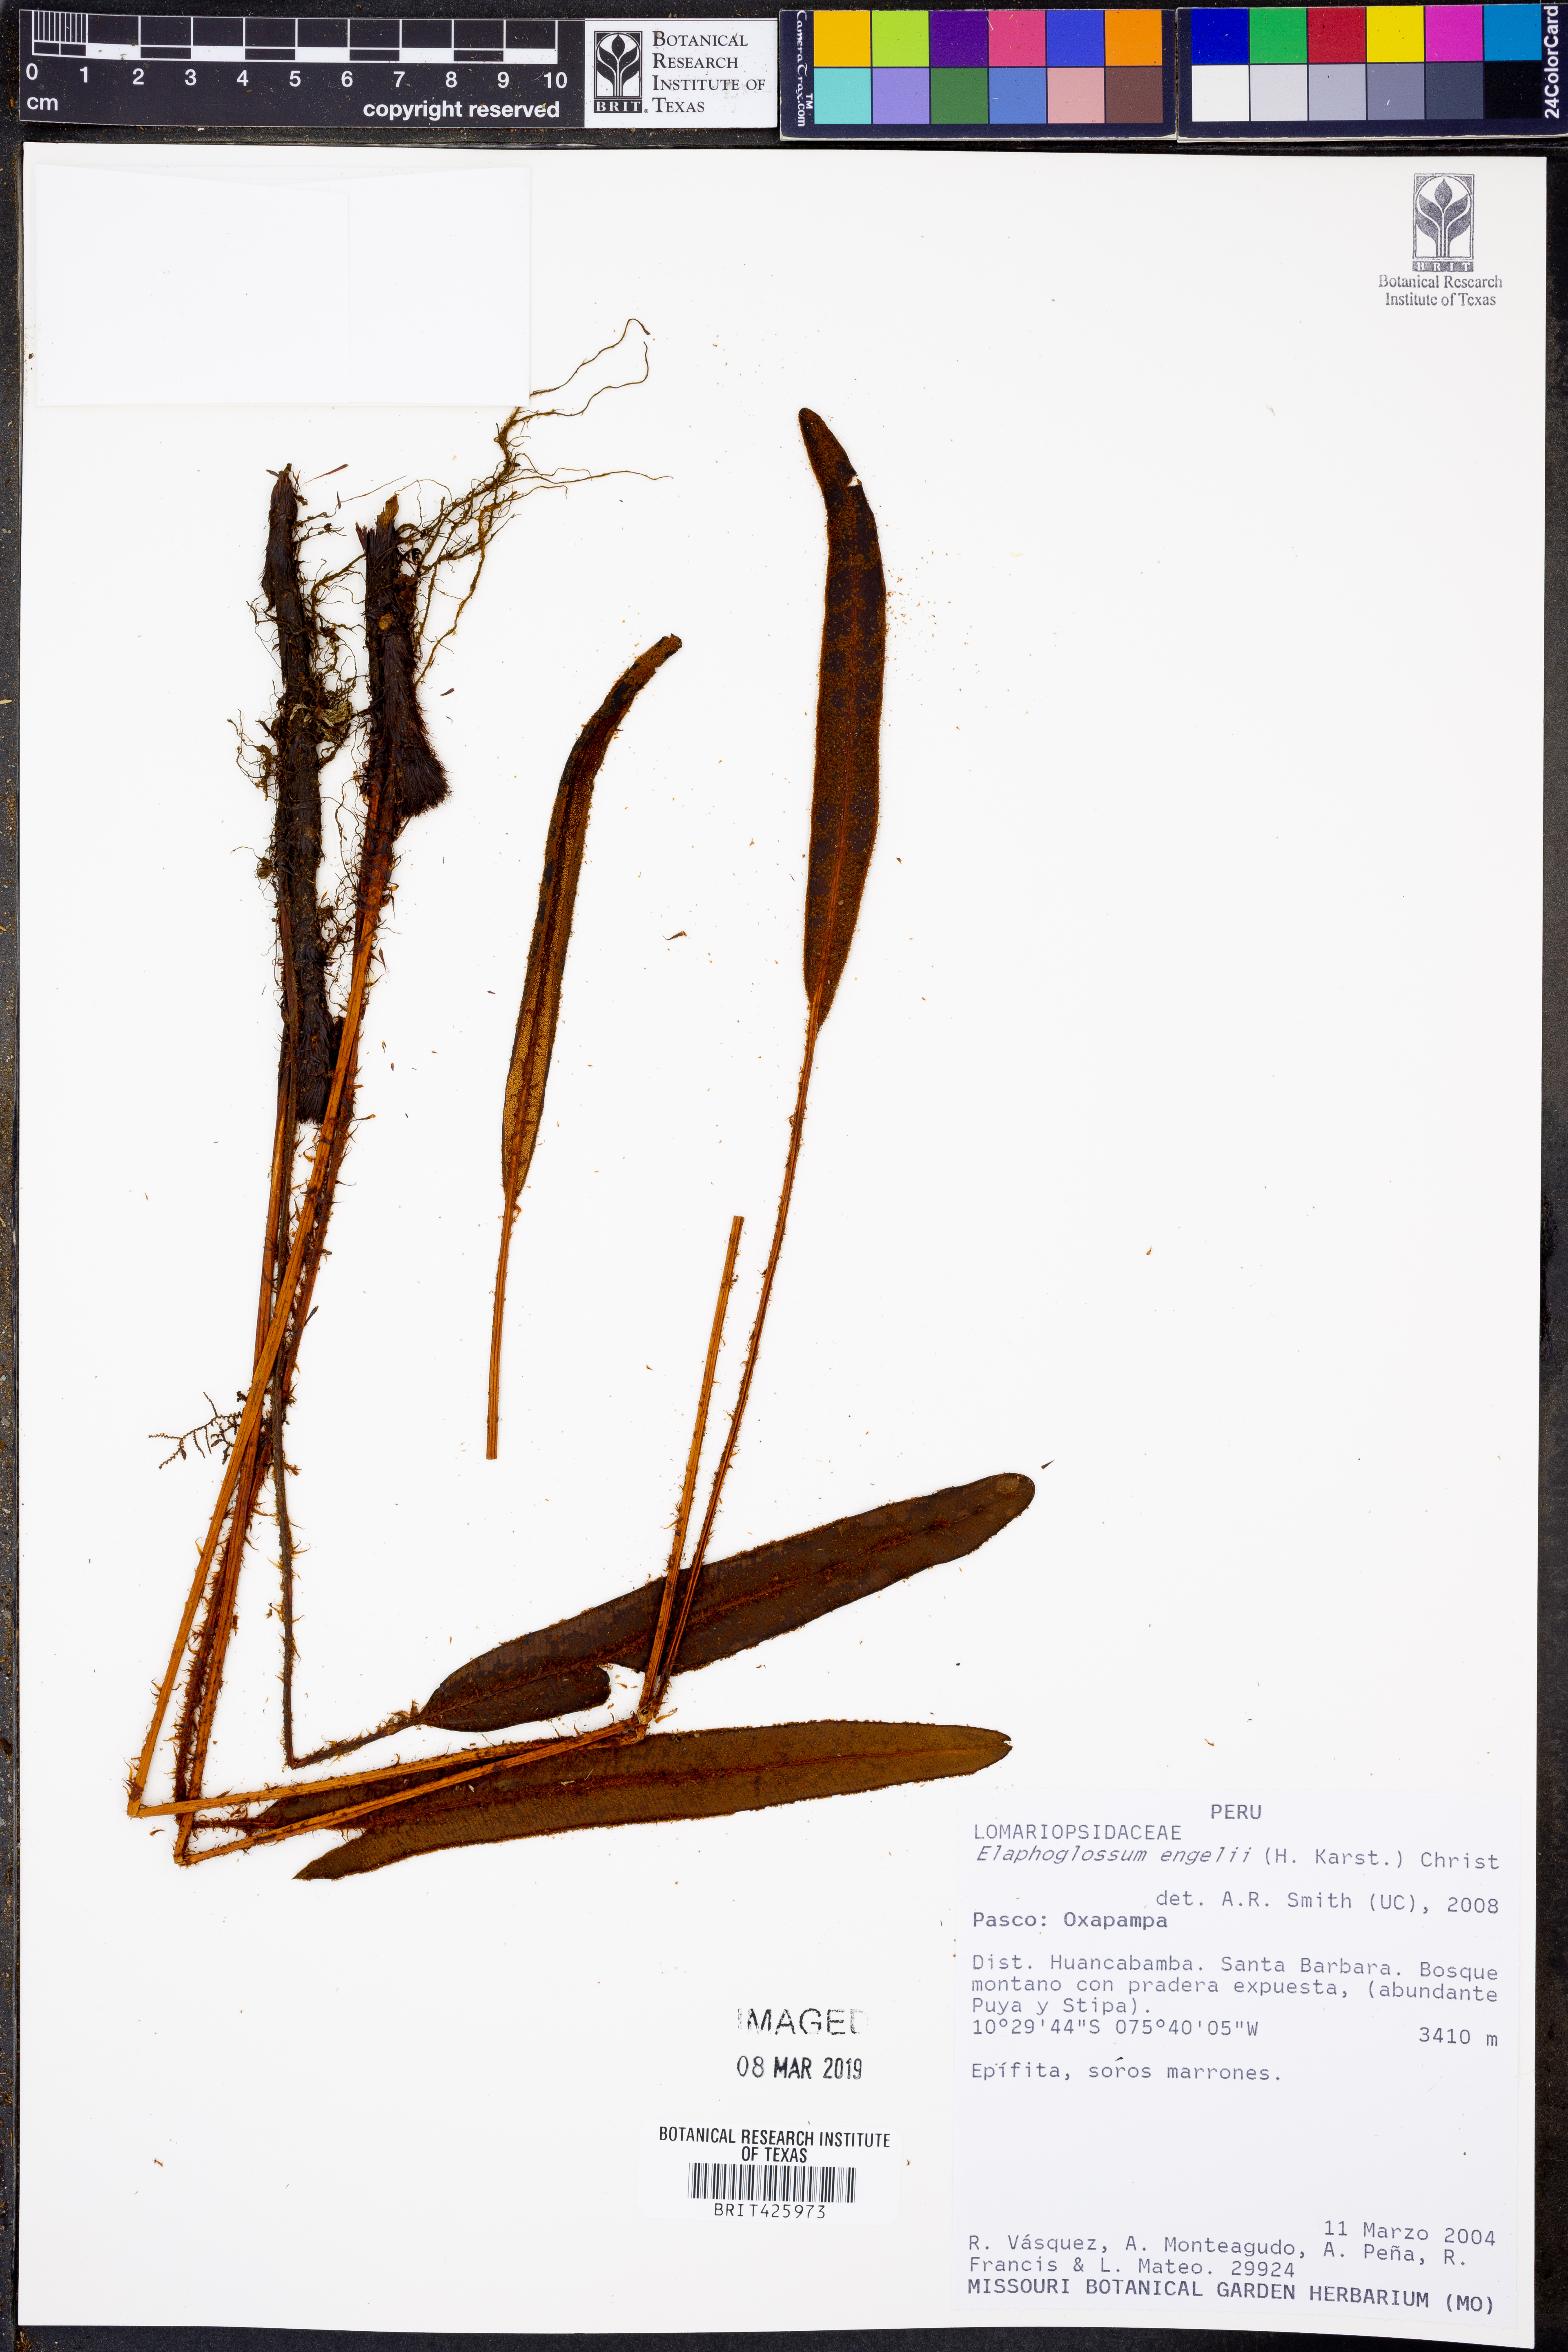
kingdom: Plantae
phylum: Tracheophyta
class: Polypodiopsida
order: Polypodiales
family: Dryopteridaceae
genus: Elaphoglossum
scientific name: Elaphoglossum laxisquama
